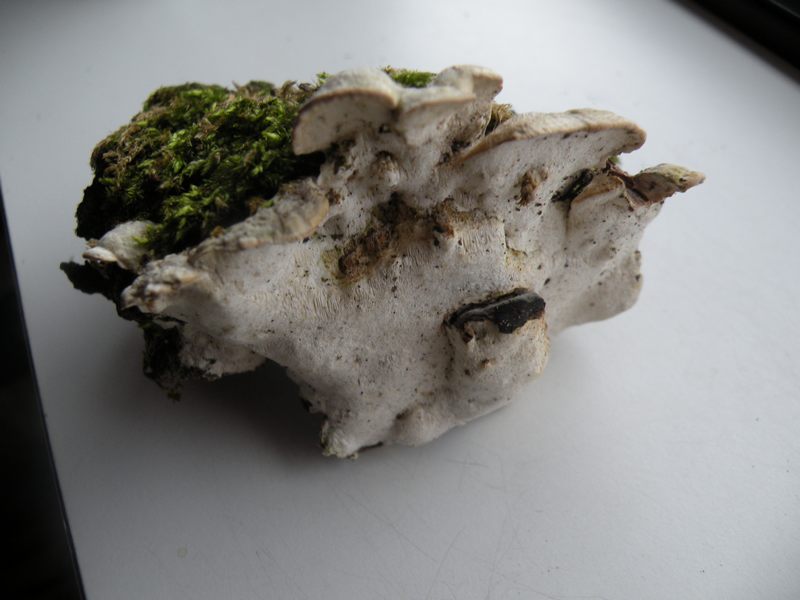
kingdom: Fungi
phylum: Basidiomycota
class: Agaricomycetes
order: Hymenochaetales
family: Oxyporaceae
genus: Oxyporus
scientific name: Oxyporus populinus
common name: sammenvokset trylleporesvamp
